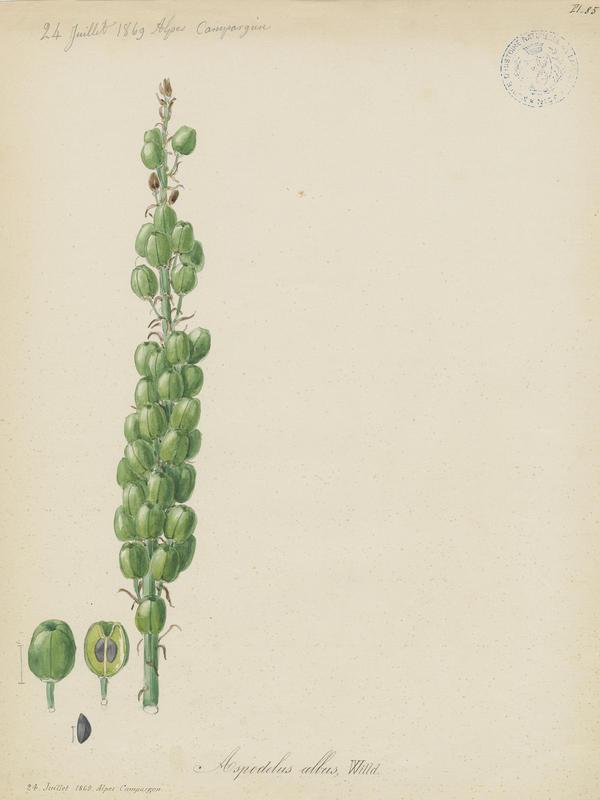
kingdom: Plantae
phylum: Tracheophyta
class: Liliopsida
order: Asparagales
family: Asphodelaceae
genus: Asphodelus
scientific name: Asphodelus albus
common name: White asphodel
